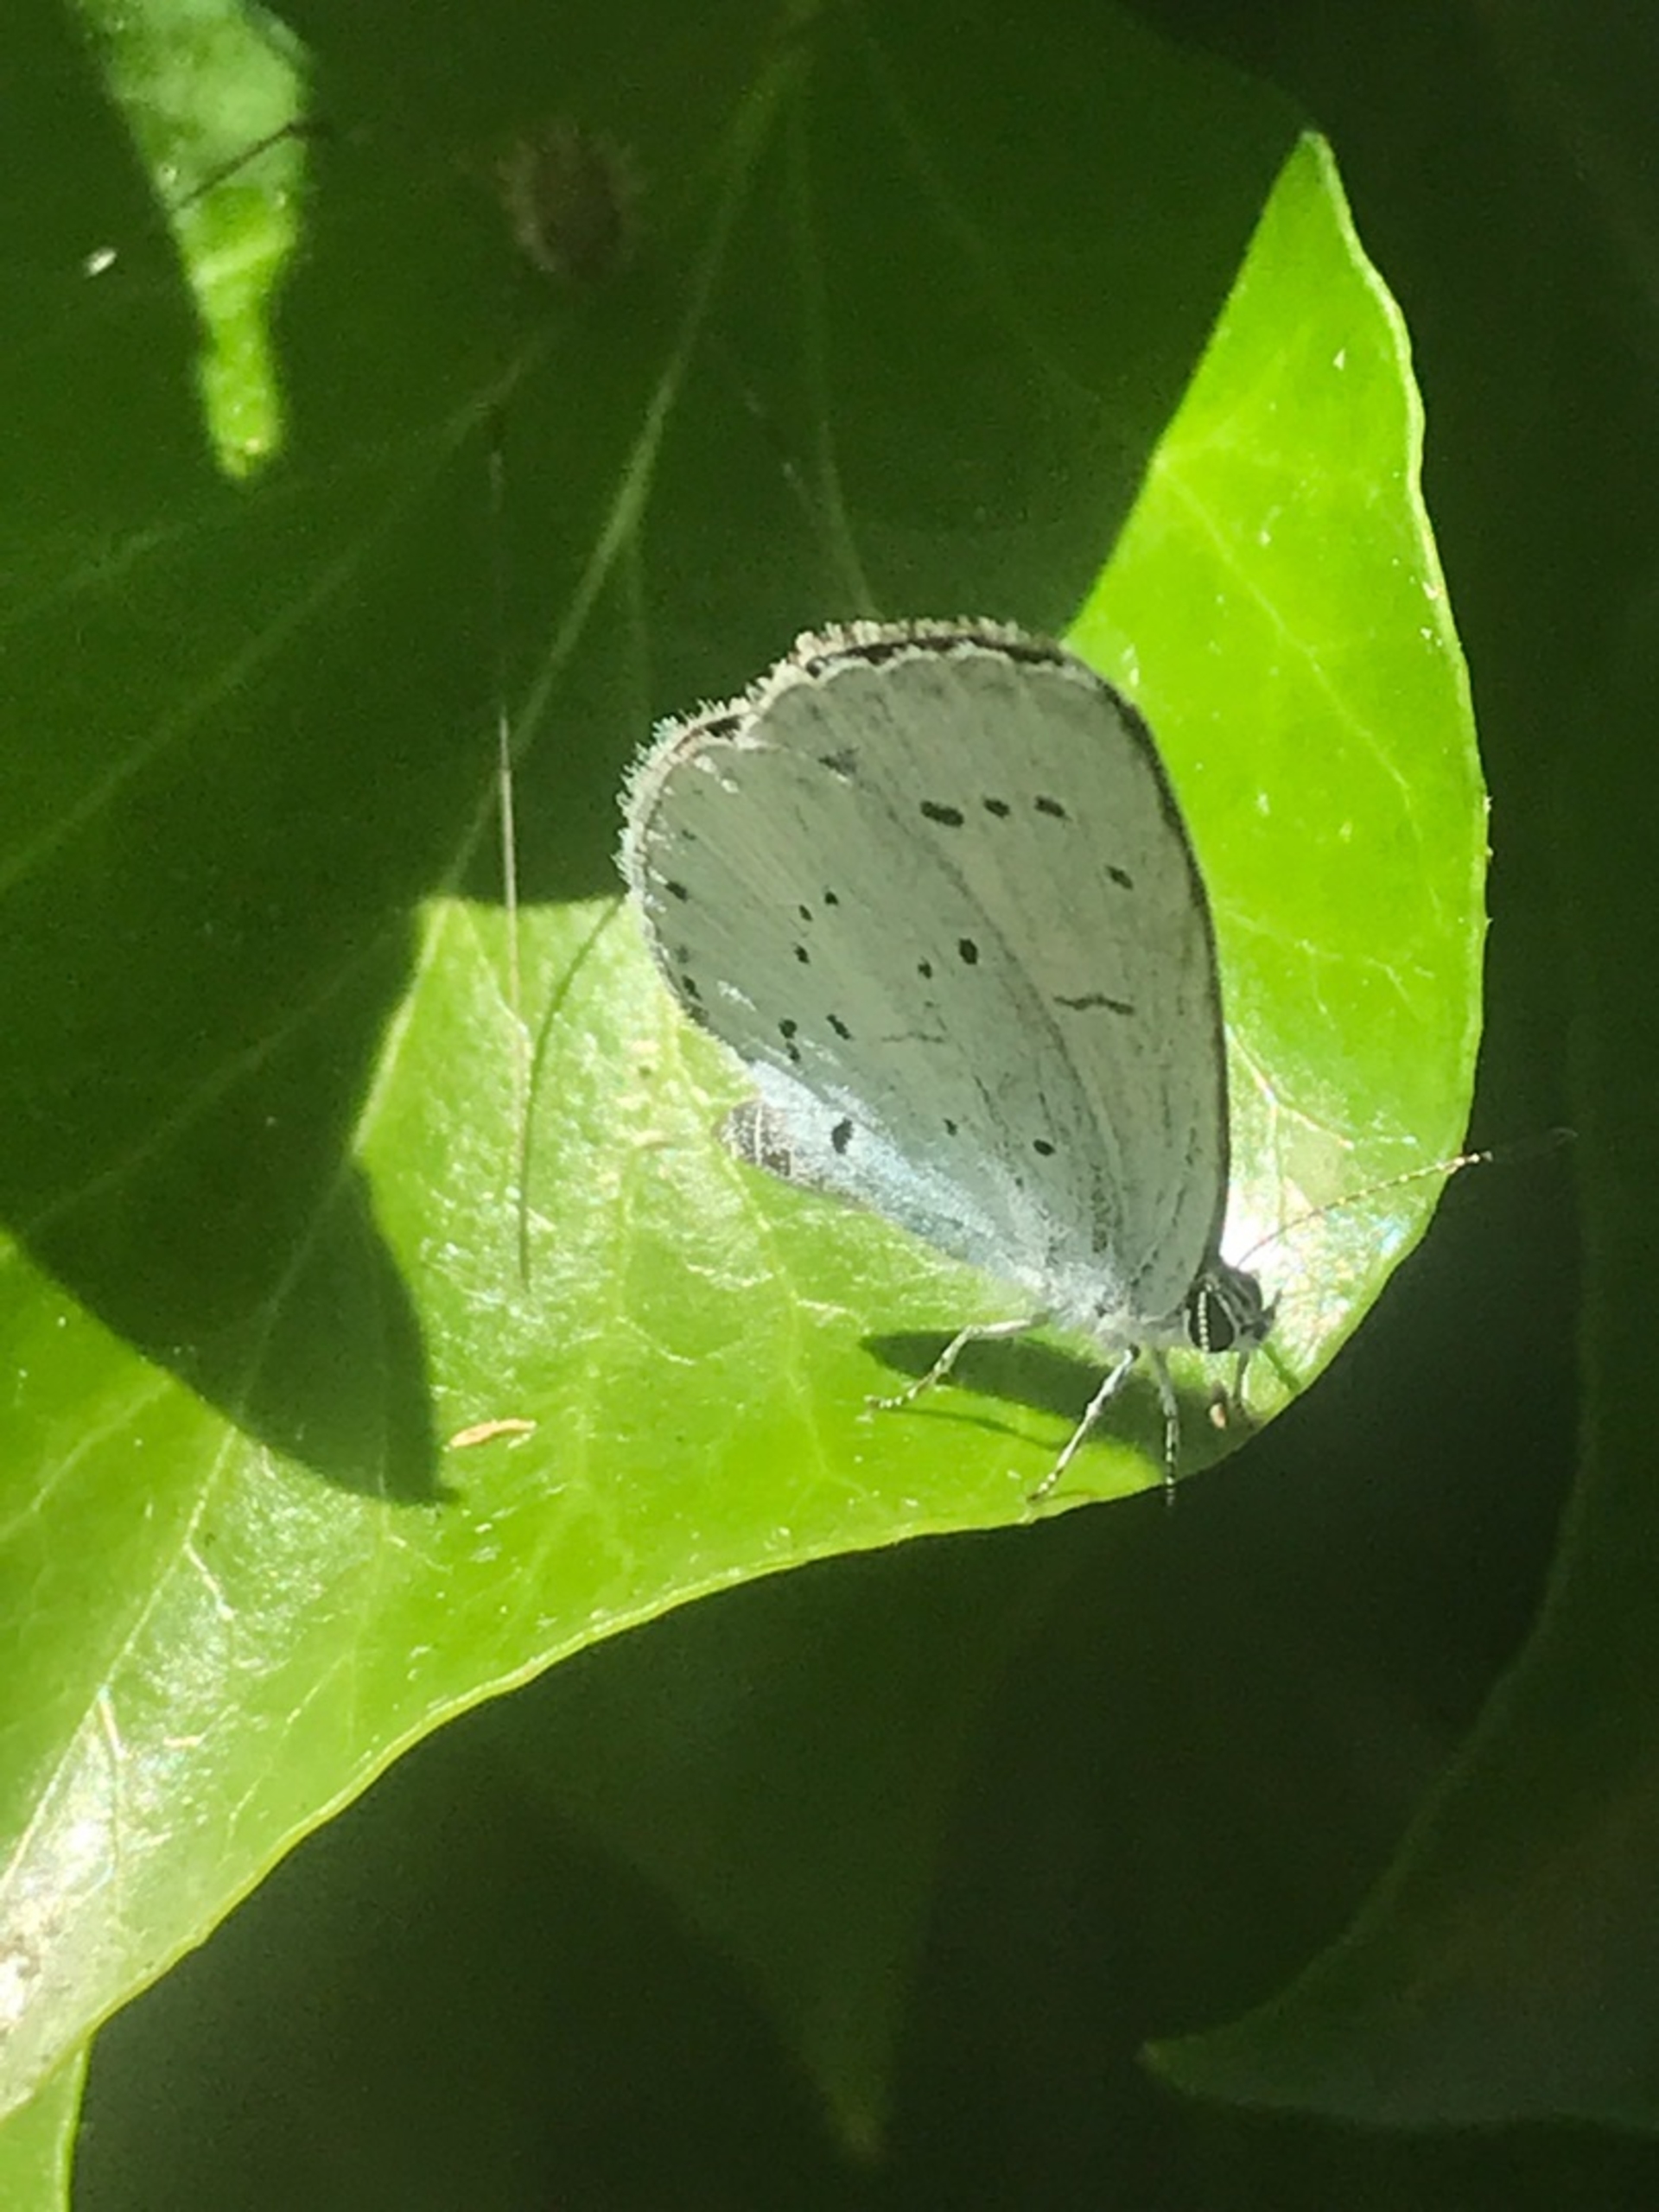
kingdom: Animalia
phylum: Arthropoda
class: Insecta
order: Lepidoptera
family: Lycaenidae
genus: Celastrina
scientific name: Celastrina argiolus
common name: Skovblåfugl
